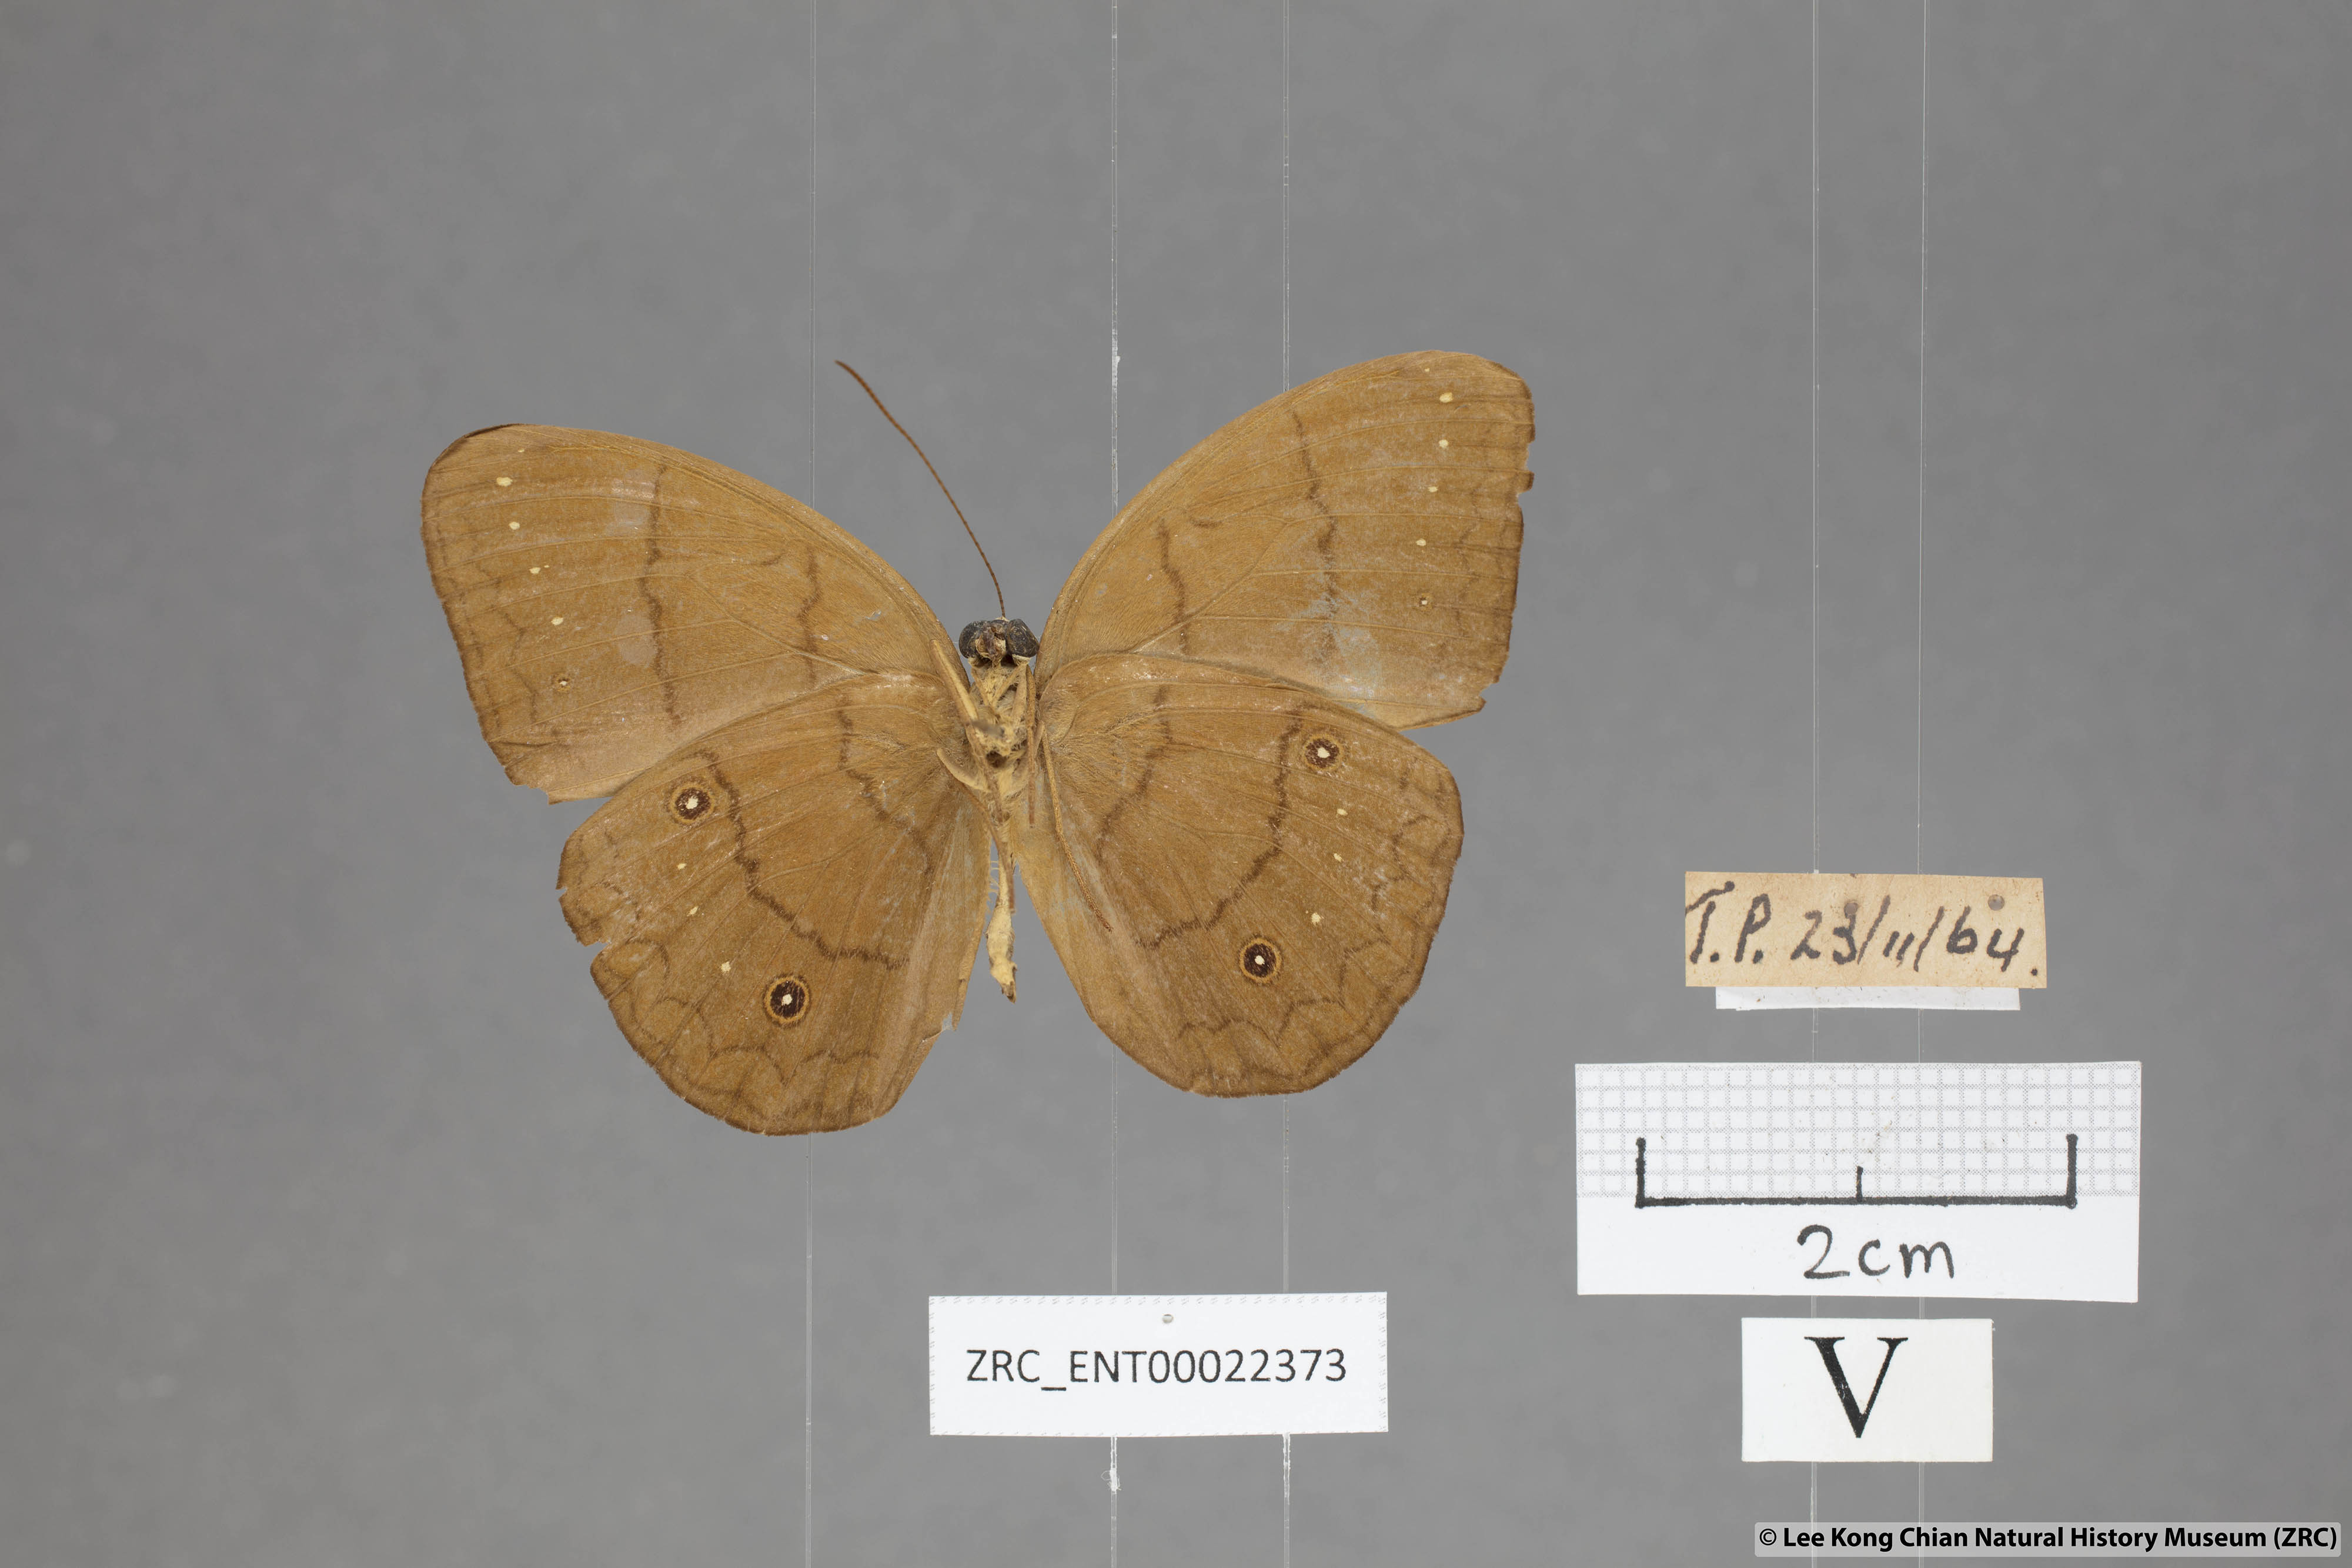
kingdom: Animalia
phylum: Arthropoda
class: Insecta
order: Lepidoptera
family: Nymphalidae
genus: Faunis
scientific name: Faunis gracilis
